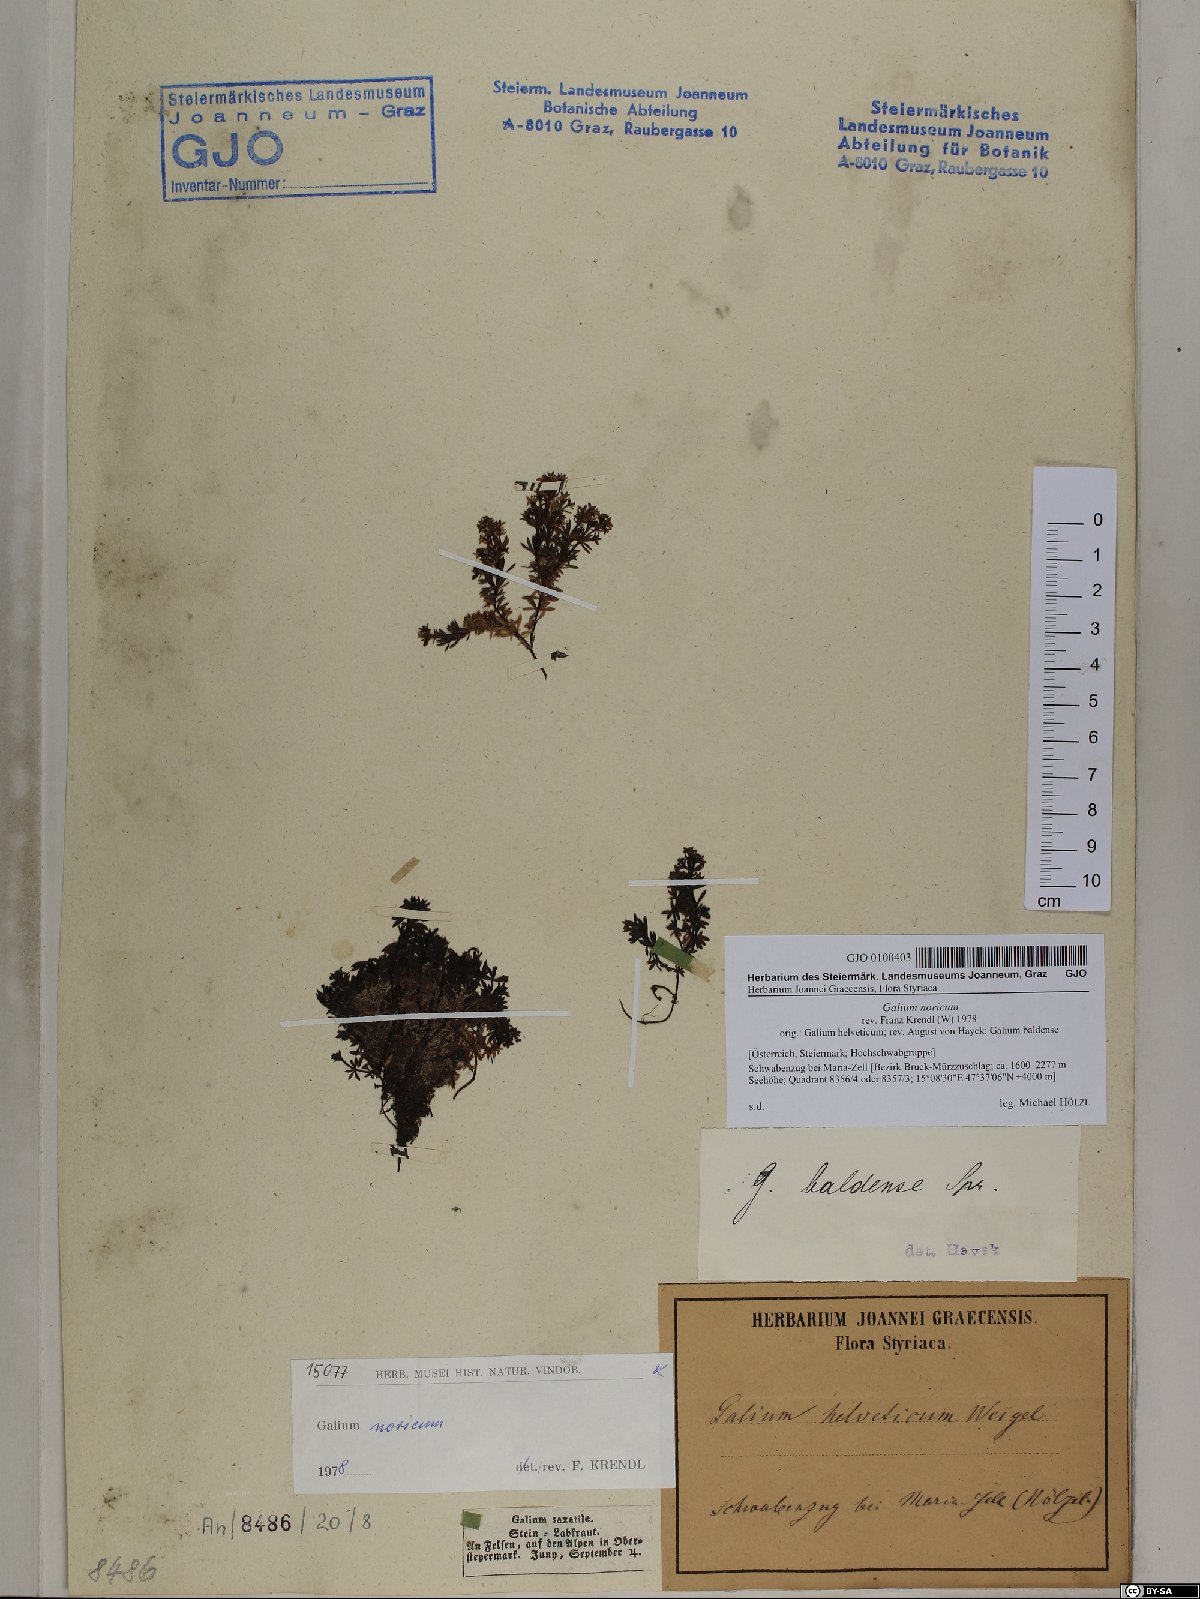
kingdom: Plantae
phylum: Tracheophyta
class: Magnoliopsida
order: Gentianales
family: Rubiaceae
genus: Galium
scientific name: Galium noricum
